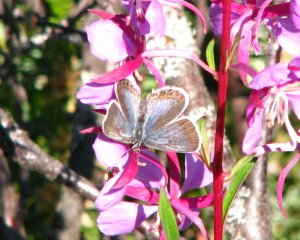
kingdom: Animalia
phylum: Arthropoda
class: Insecta
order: Lepidoptera
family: Lycaenidae
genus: Lycaeides
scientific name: Lycaeides idas
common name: Northern Blue
